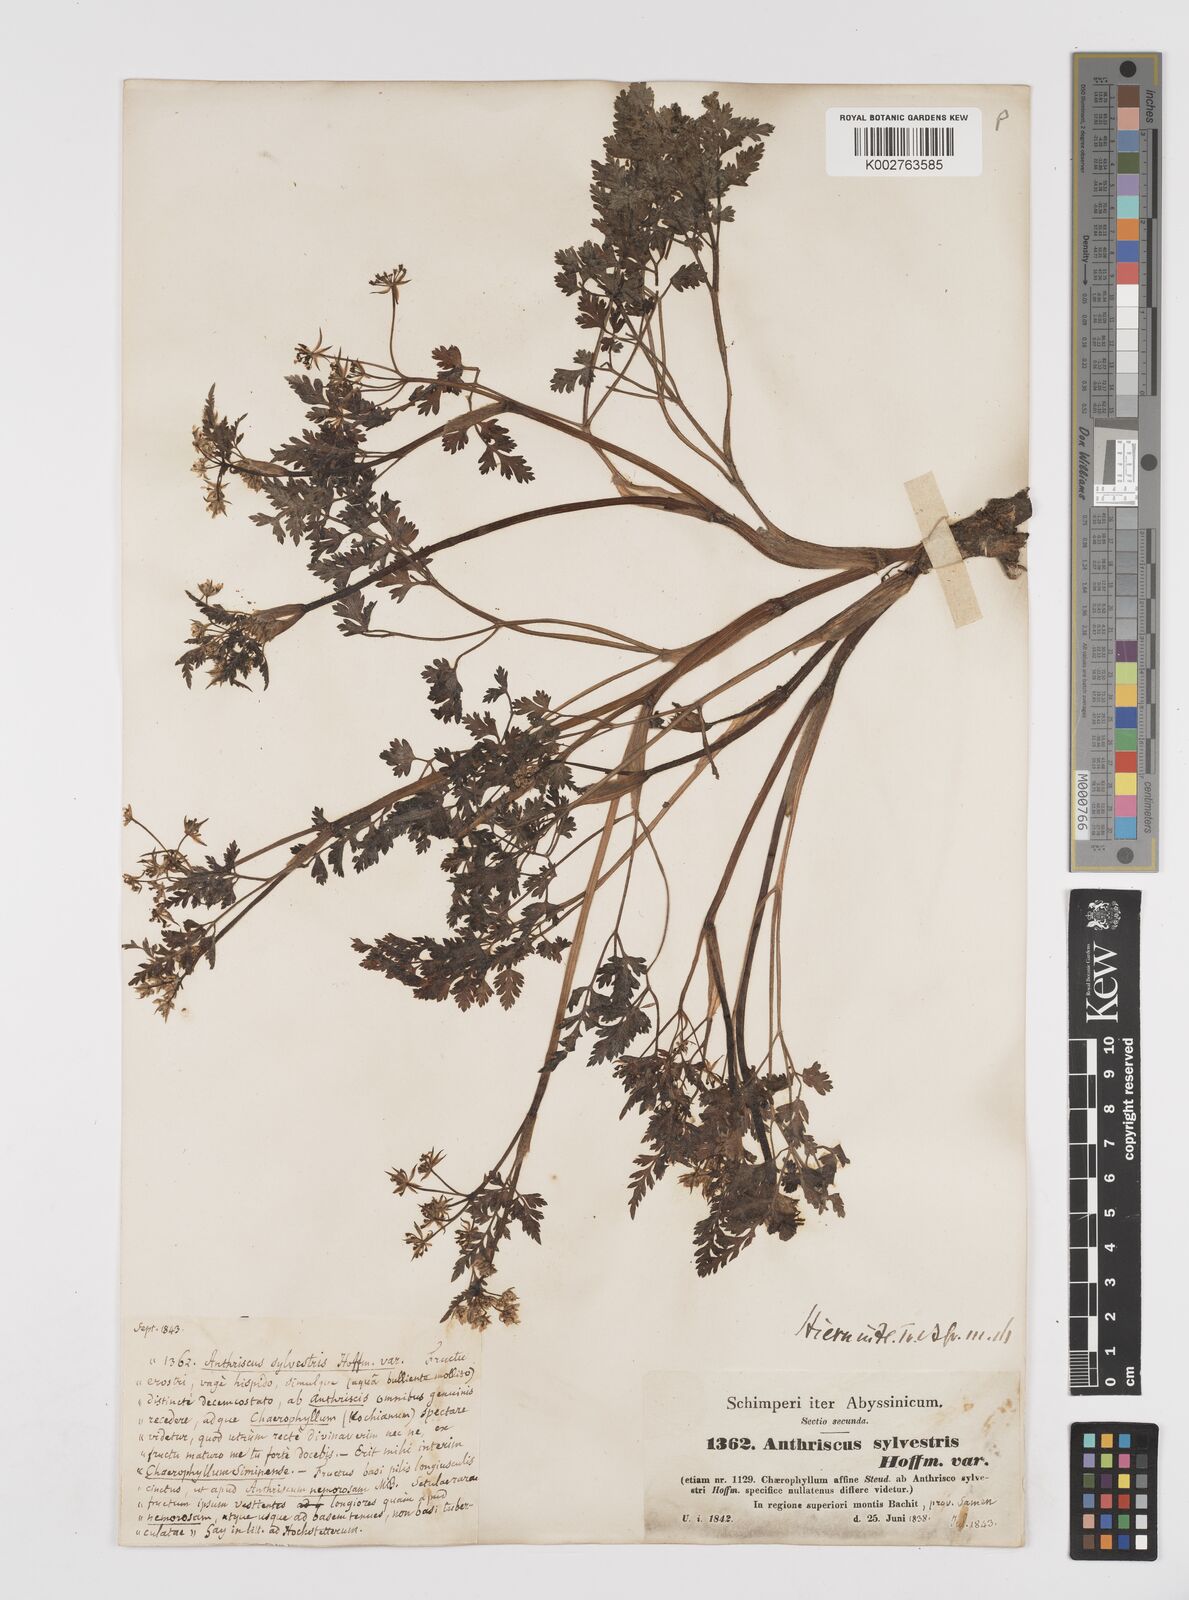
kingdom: Plantae
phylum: Tracheophyta
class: Magnoliopsida
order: Apiales
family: Apiaceae
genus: Anthriscus
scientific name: Anthriscus sylvestris
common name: Cow parsley
